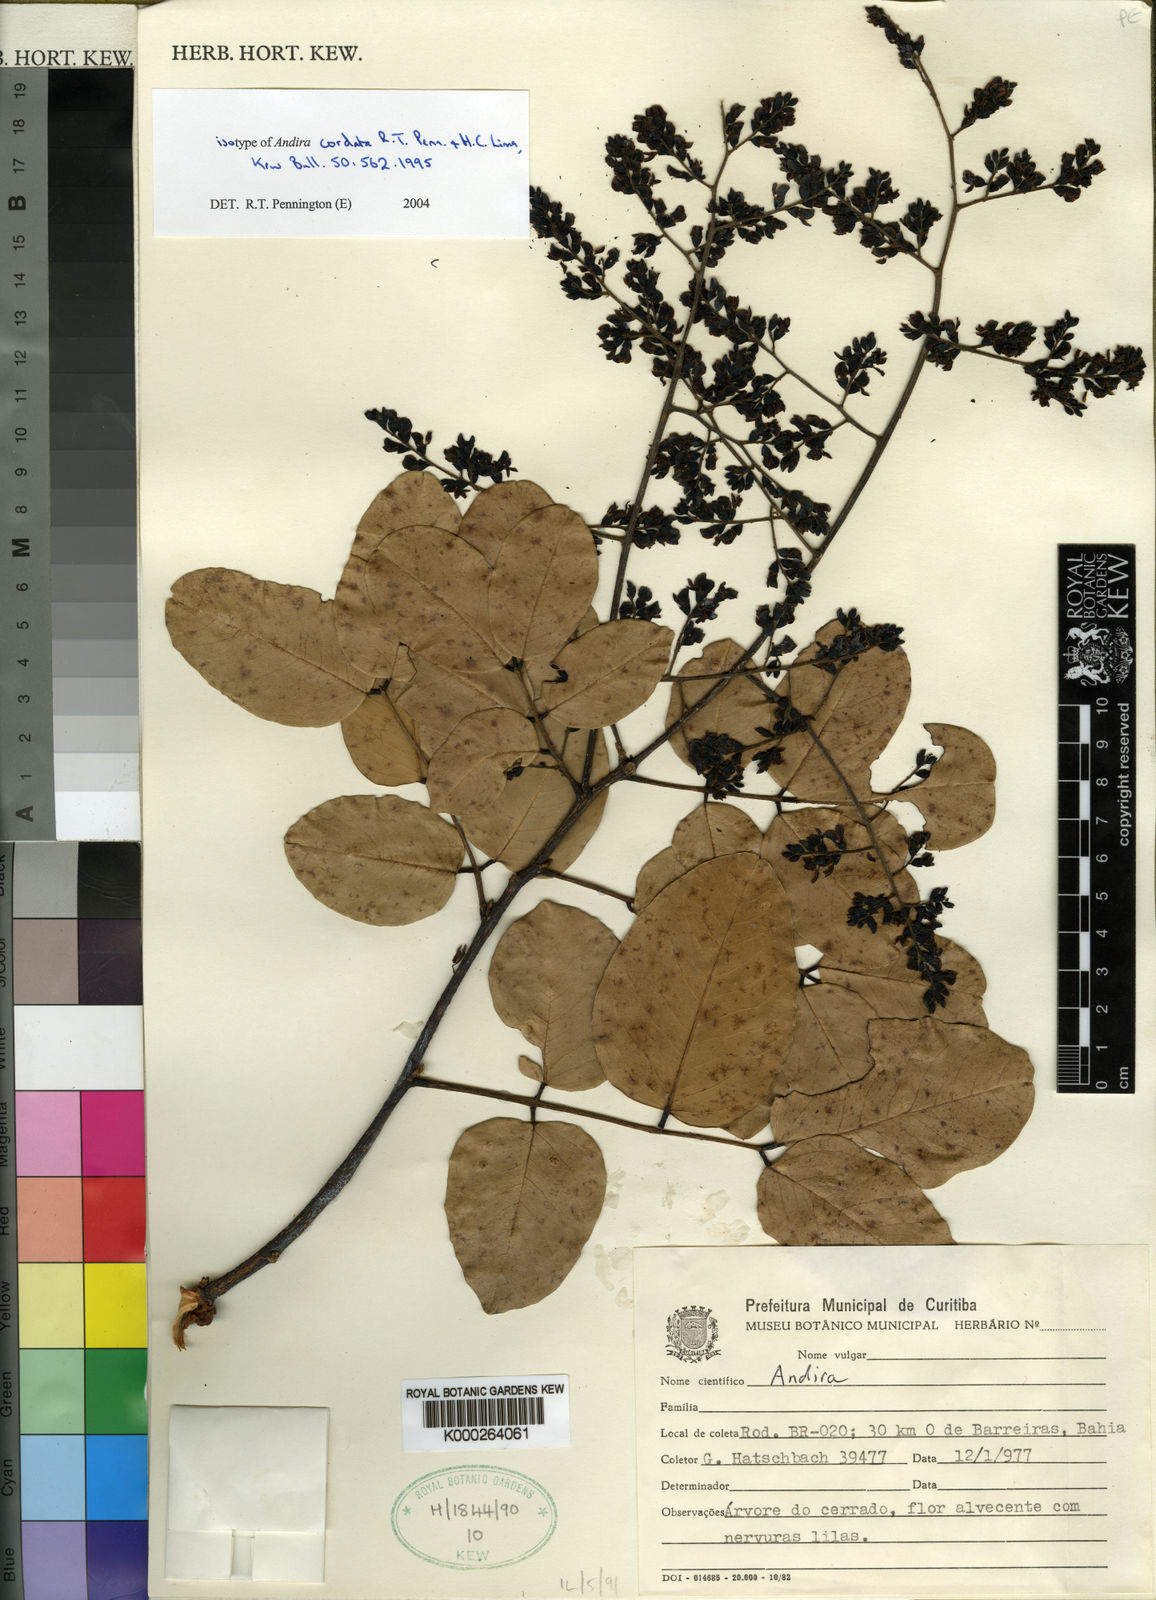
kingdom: Plantae
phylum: Tracheophyta
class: Magnoliopsida
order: Fabales
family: Fabaceae
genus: Andira
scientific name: Andira cordata
